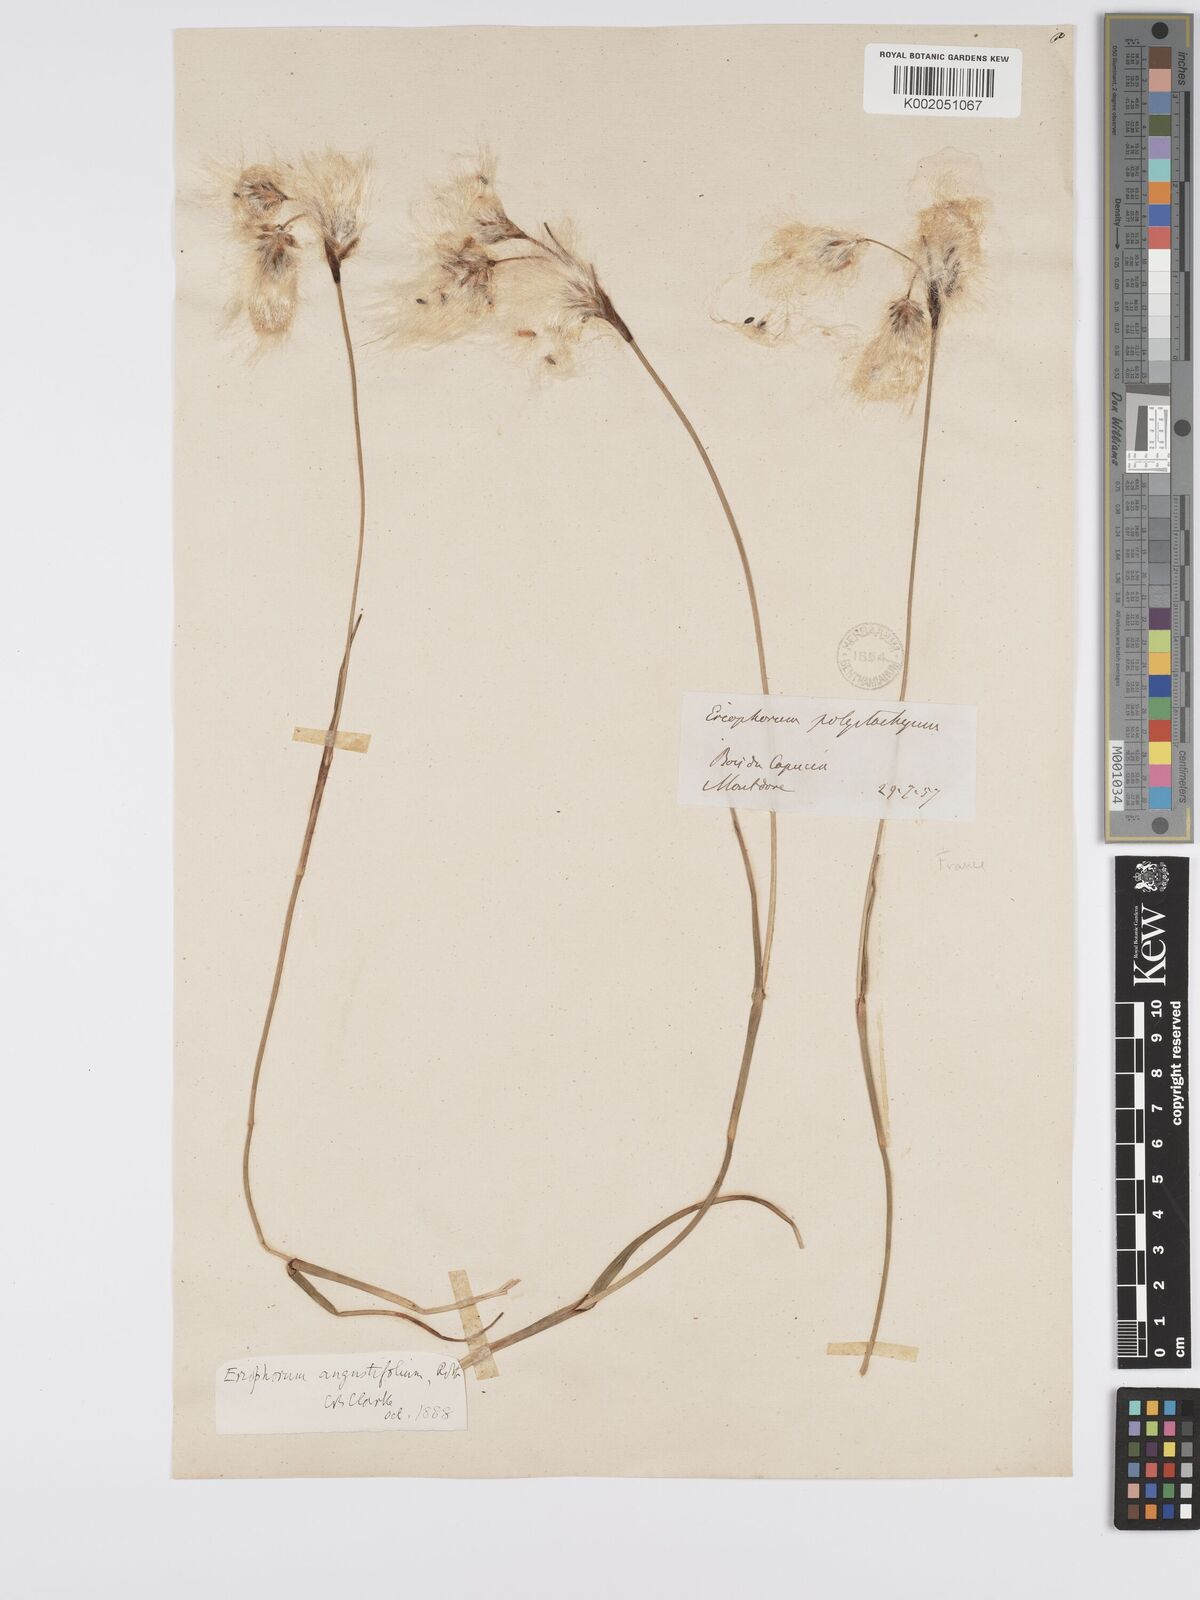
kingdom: Plantae
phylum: Tracheophyta
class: Liliopsida
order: Poales
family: Cyperaceae
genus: Eriophorum
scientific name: Eriophorum angustifolium
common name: Common cottongrass
